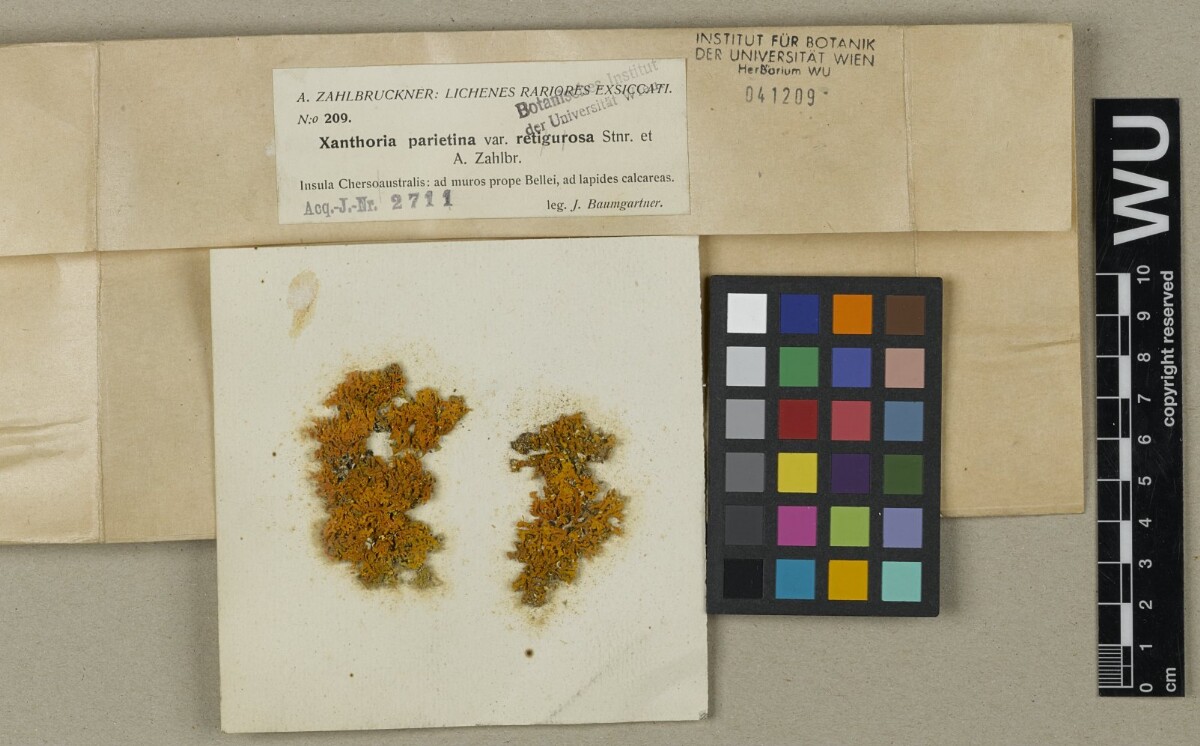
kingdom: Fungi
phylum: Ascomycota
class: Lecanoromycetes
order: Teloschistales
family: Teloschistaceae
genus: Xanthoria
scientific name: Xanthoria parietina
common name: Common orange lichen
